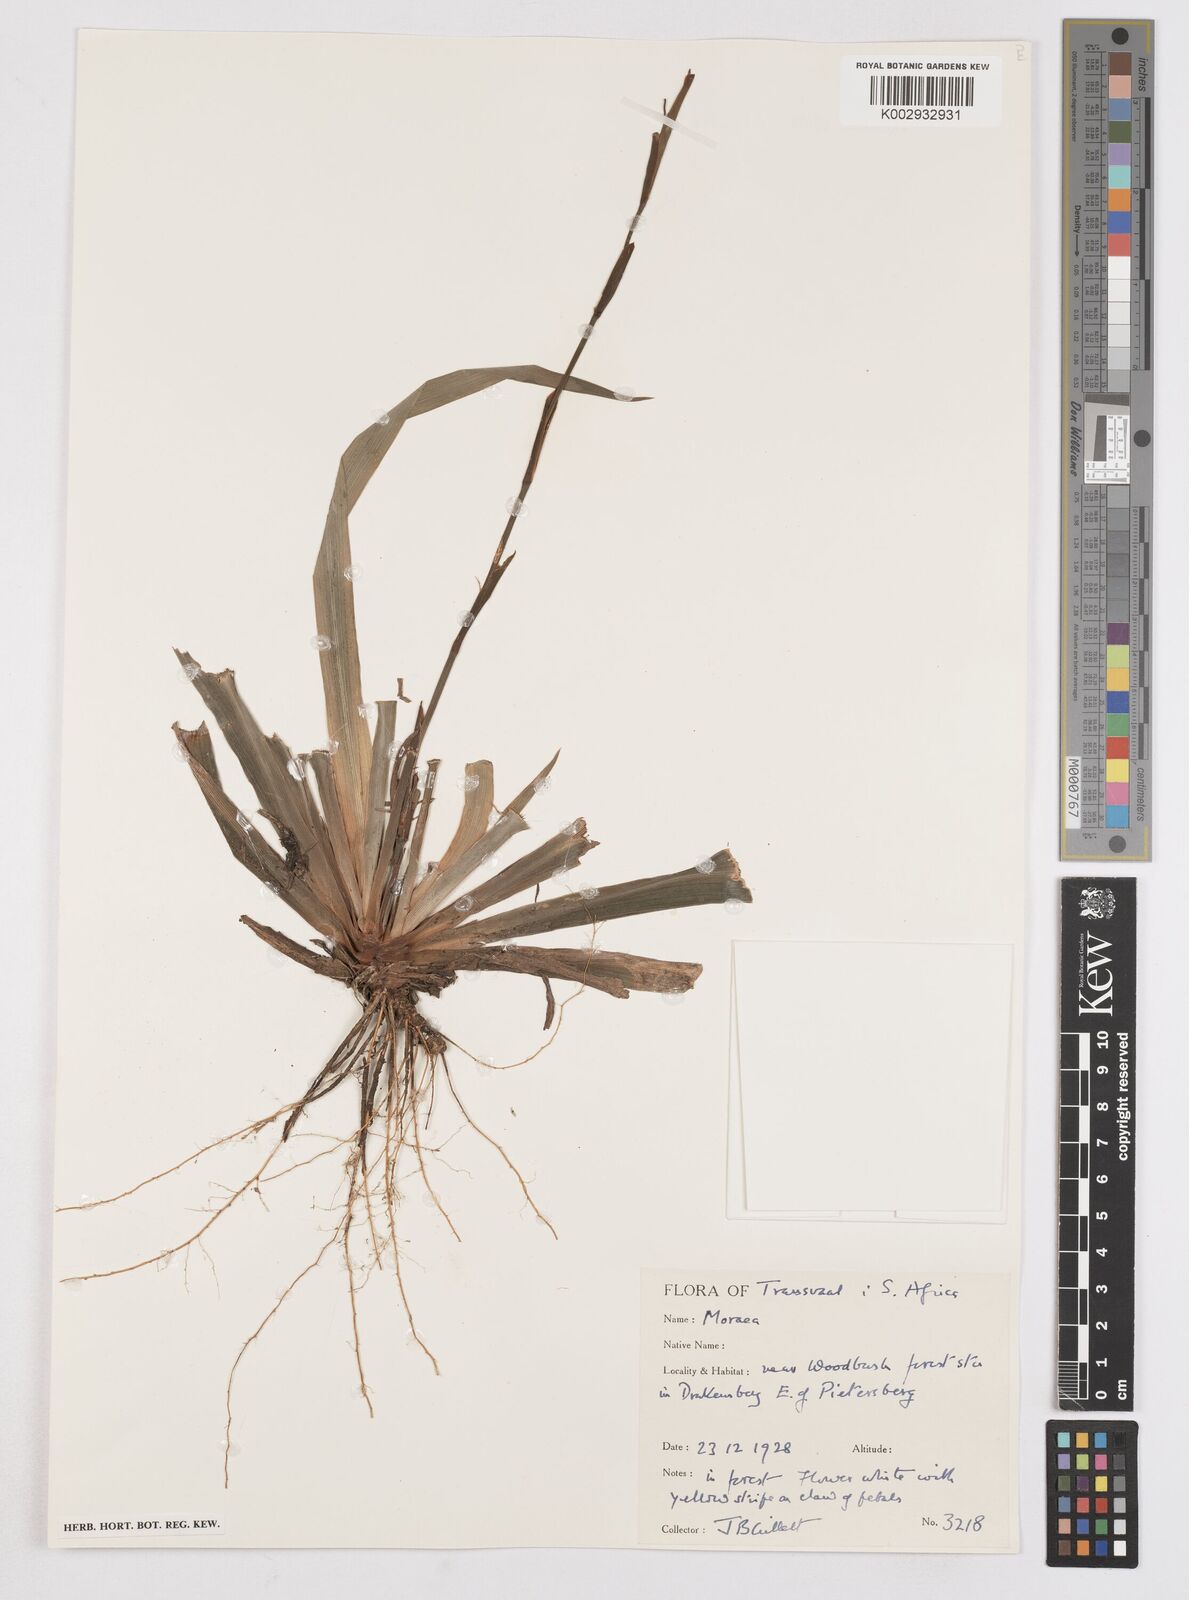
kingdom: Plantae
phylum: Tracheophyta
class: Liliopsida
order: Asparagales
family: Iridaceae
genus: Dietes
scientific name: Dietes iridioides
